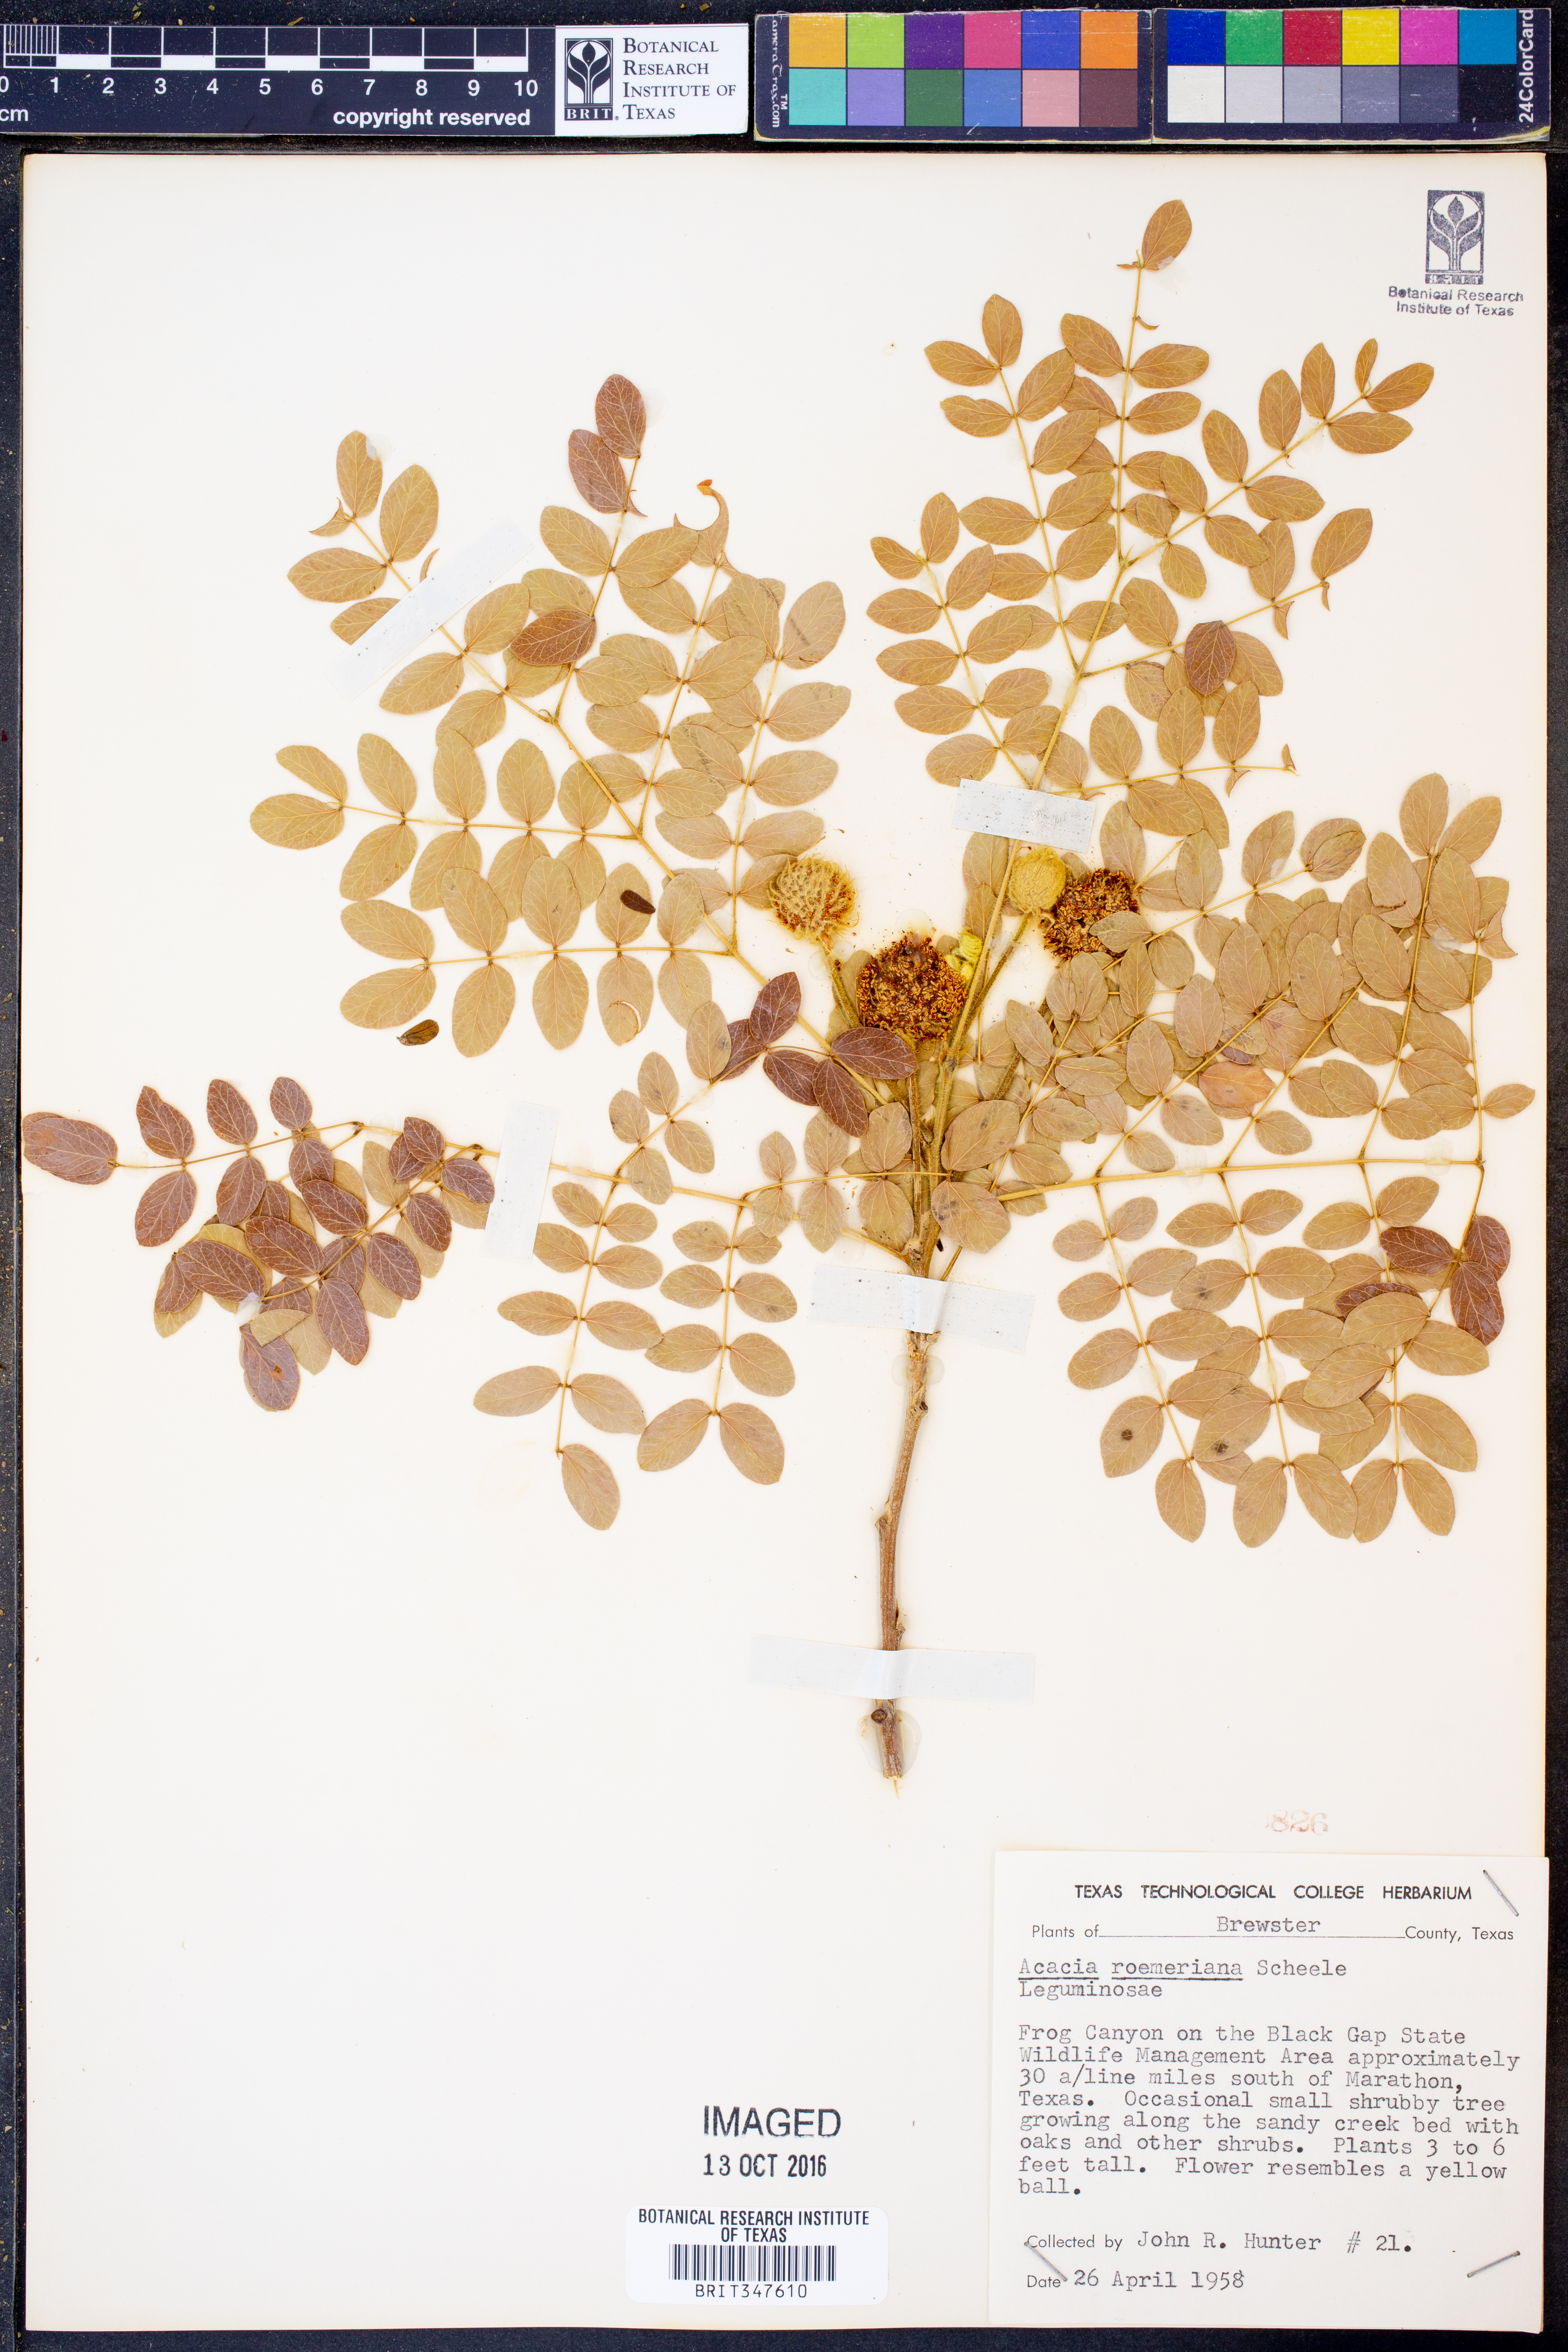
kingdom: Plantae
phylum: Tracheophyta
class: Magnoliopsida
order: Fabales
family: Fabaceae
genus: Senegalia
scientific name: Senegalia roemeriana
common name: Roemer's acacia
